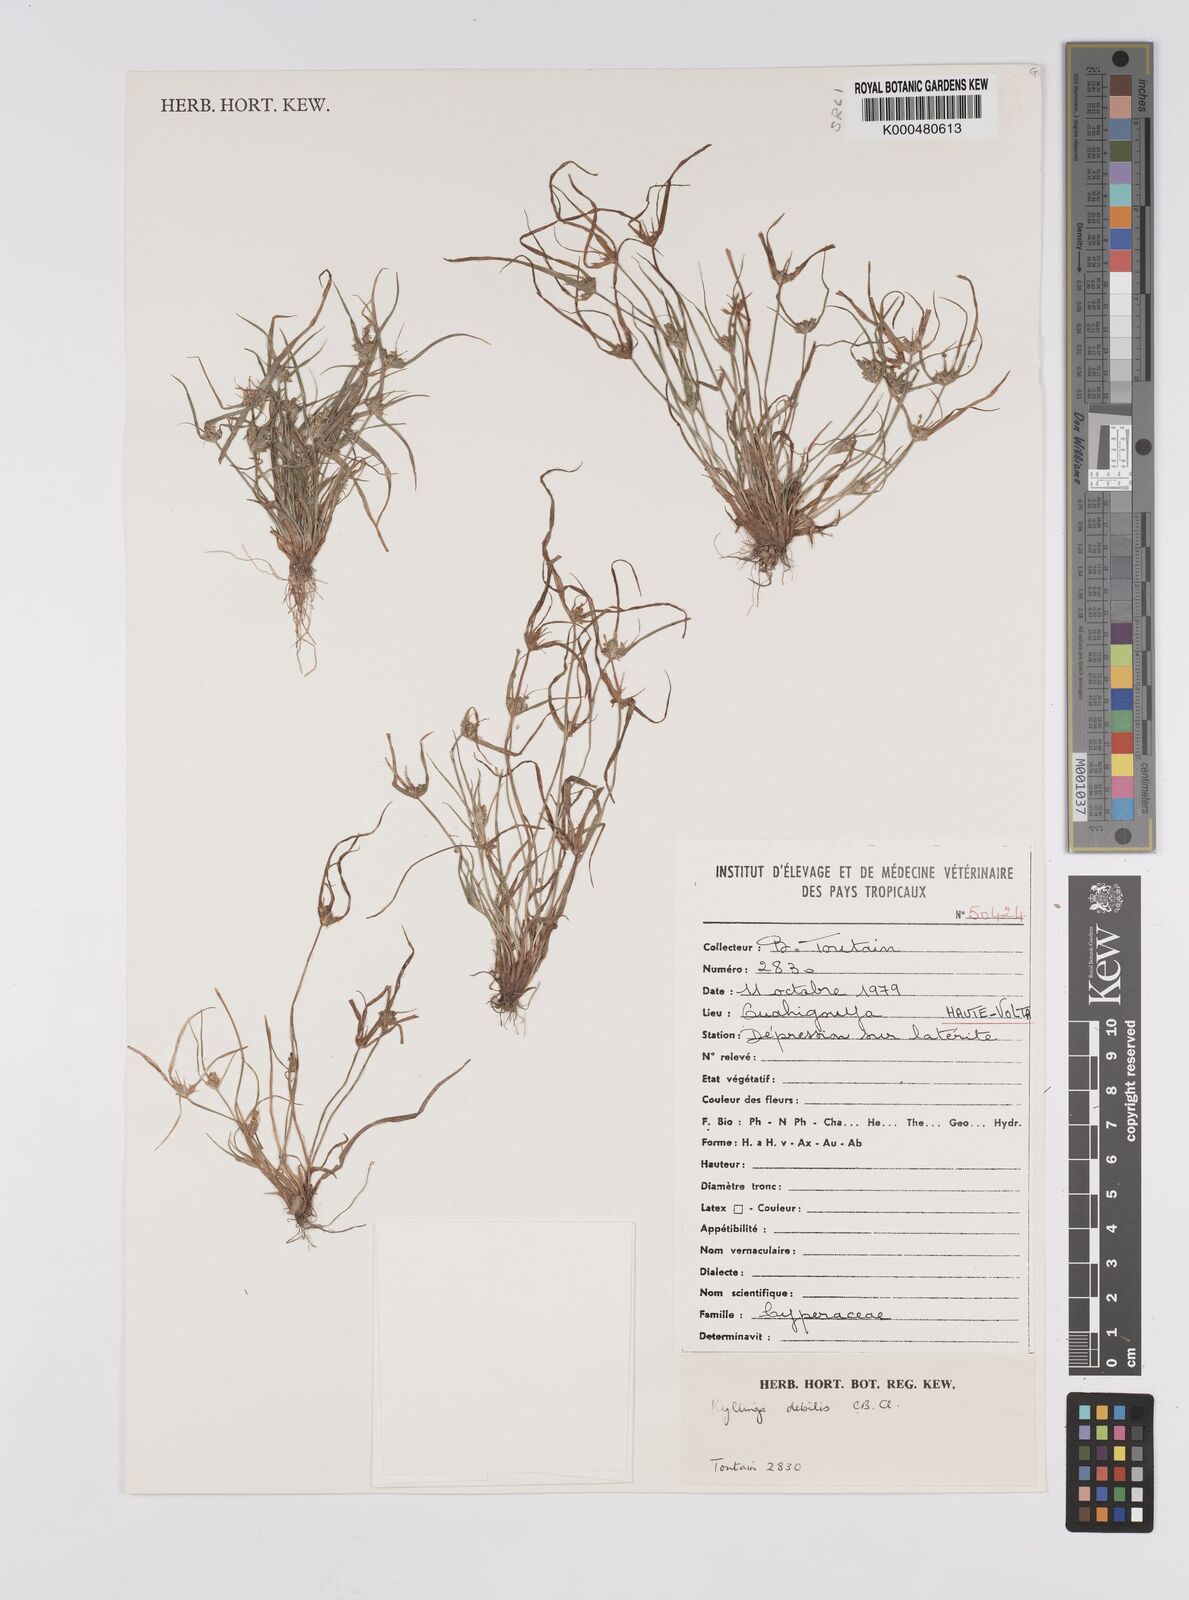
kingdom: Plantae
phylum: Tracheophyta
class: Liliopsida
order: Poales
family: Cyperaceae
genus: Cyperus
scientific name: Cyperus leptorhachis
